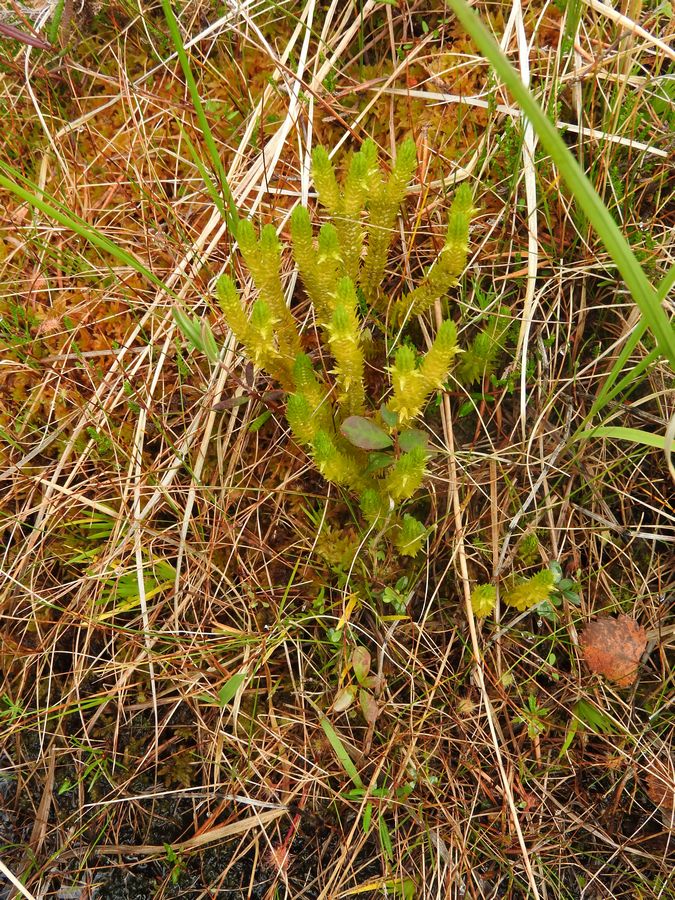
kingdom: Plantae
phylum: Tracheophyta
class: Lycopodiopsida
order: Lycopodiales
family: Lycopodiaceae
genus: Huperzia
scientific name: Huperzia selago
